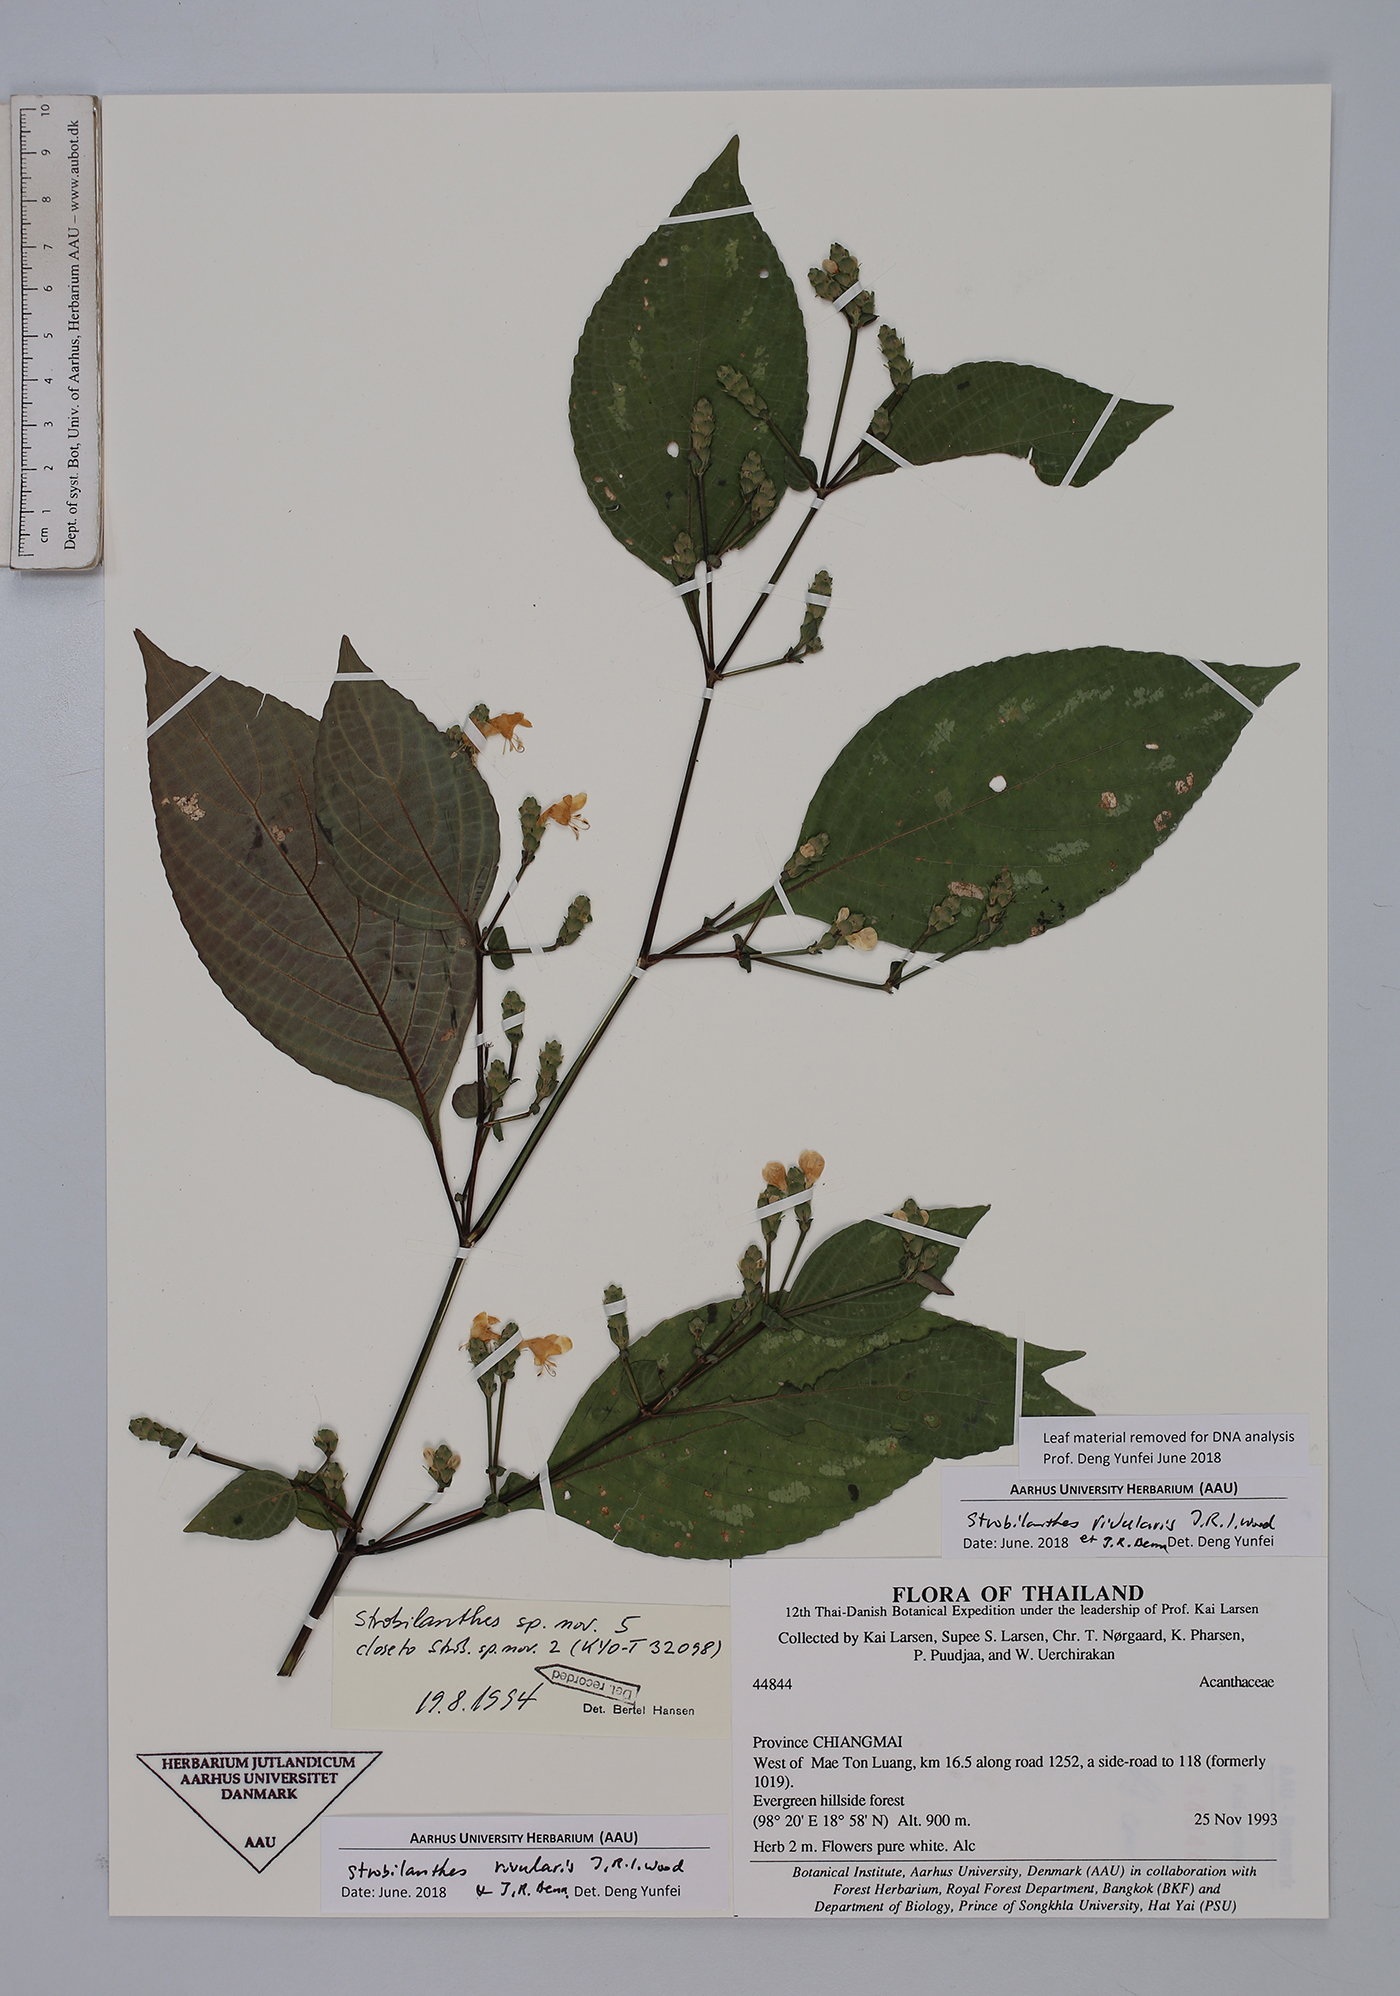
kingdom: Plantae
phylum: Tracheophyta
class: Magnoliopsida
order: Lamiales
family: Acanthaceae
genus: Strobilanthes
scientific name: Strobilanthes rivularis
